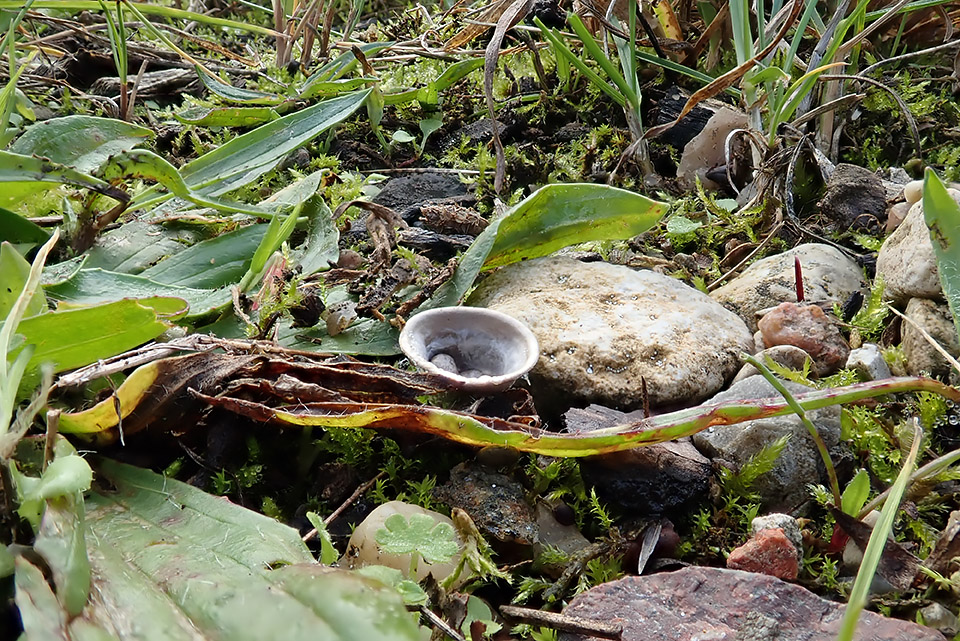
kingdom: Fungi
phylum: Basidiomycota
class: Agaricomycetes
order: Agaricales
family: Agaricaceae
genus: Cyathus
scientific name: Cyathus olla
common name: klokke-redesvamp
